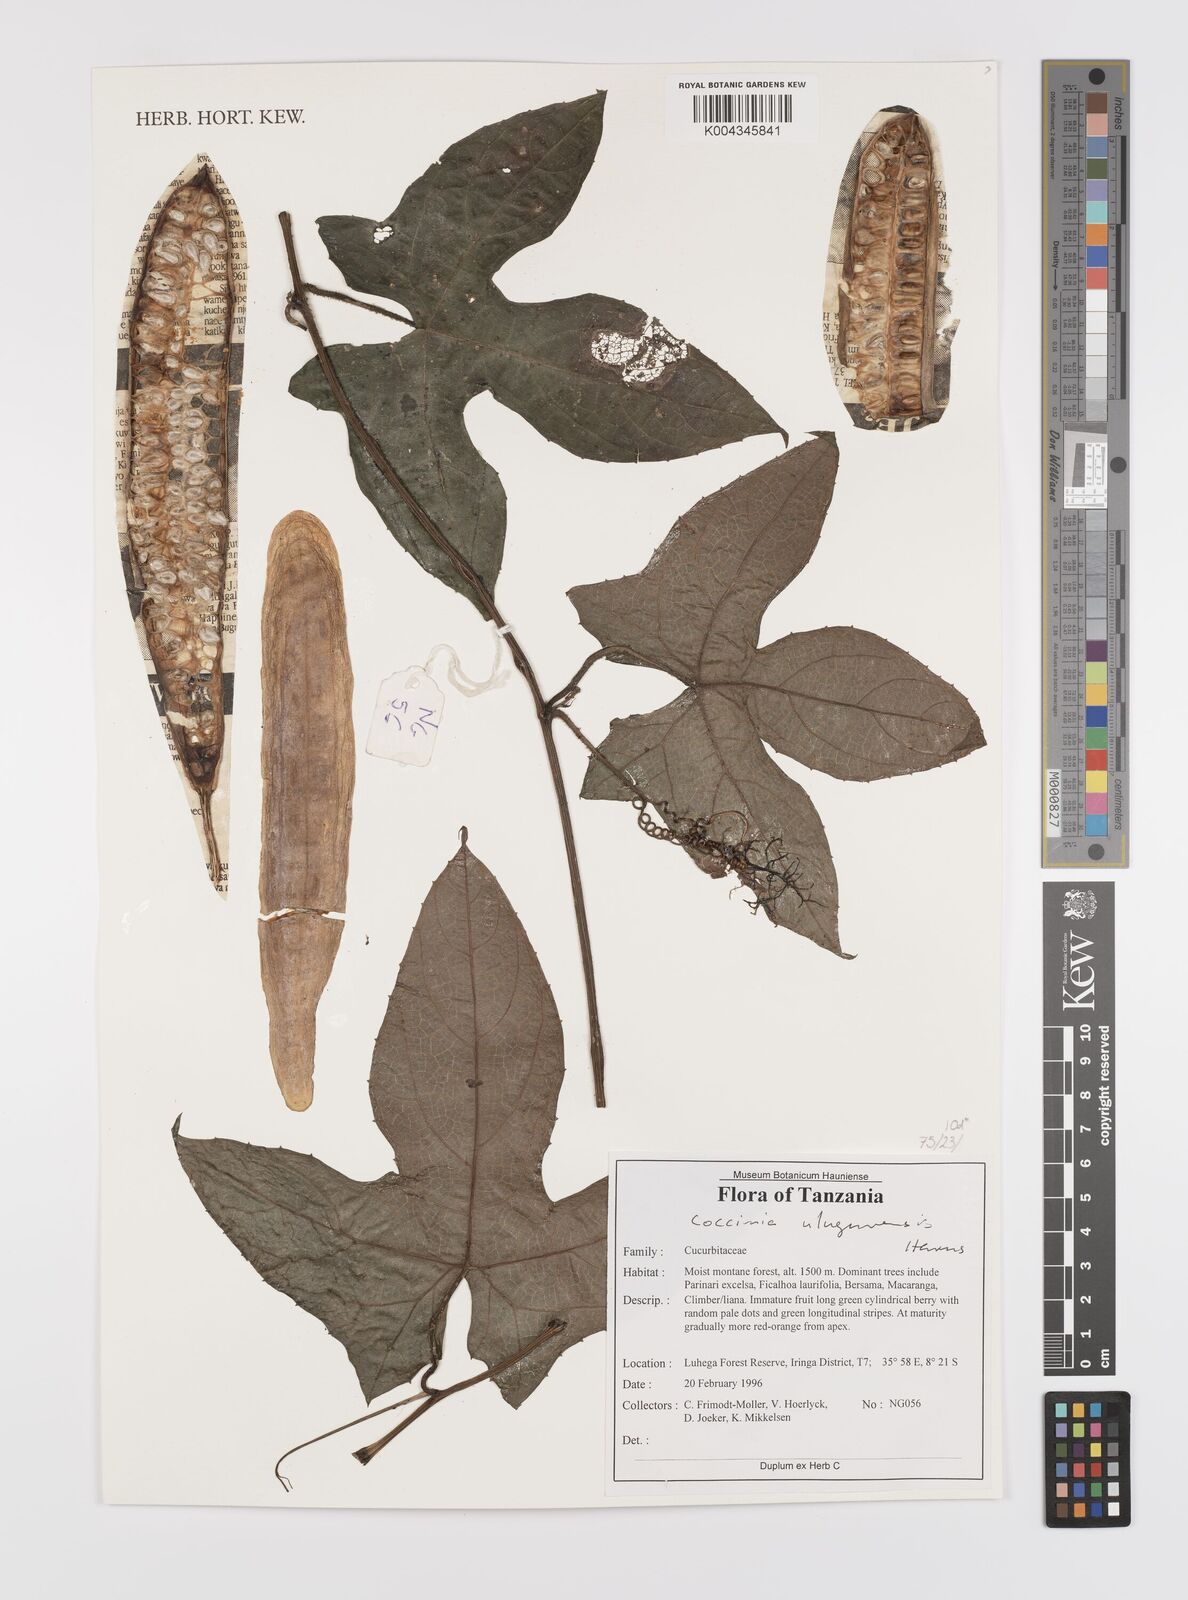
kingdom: Plantae
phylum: Tracheophyta
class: Magnoliopsida
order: Cucurbitales
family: Cucurbitaceae
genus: Coccinia
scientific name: Coccinia mildbraedii
